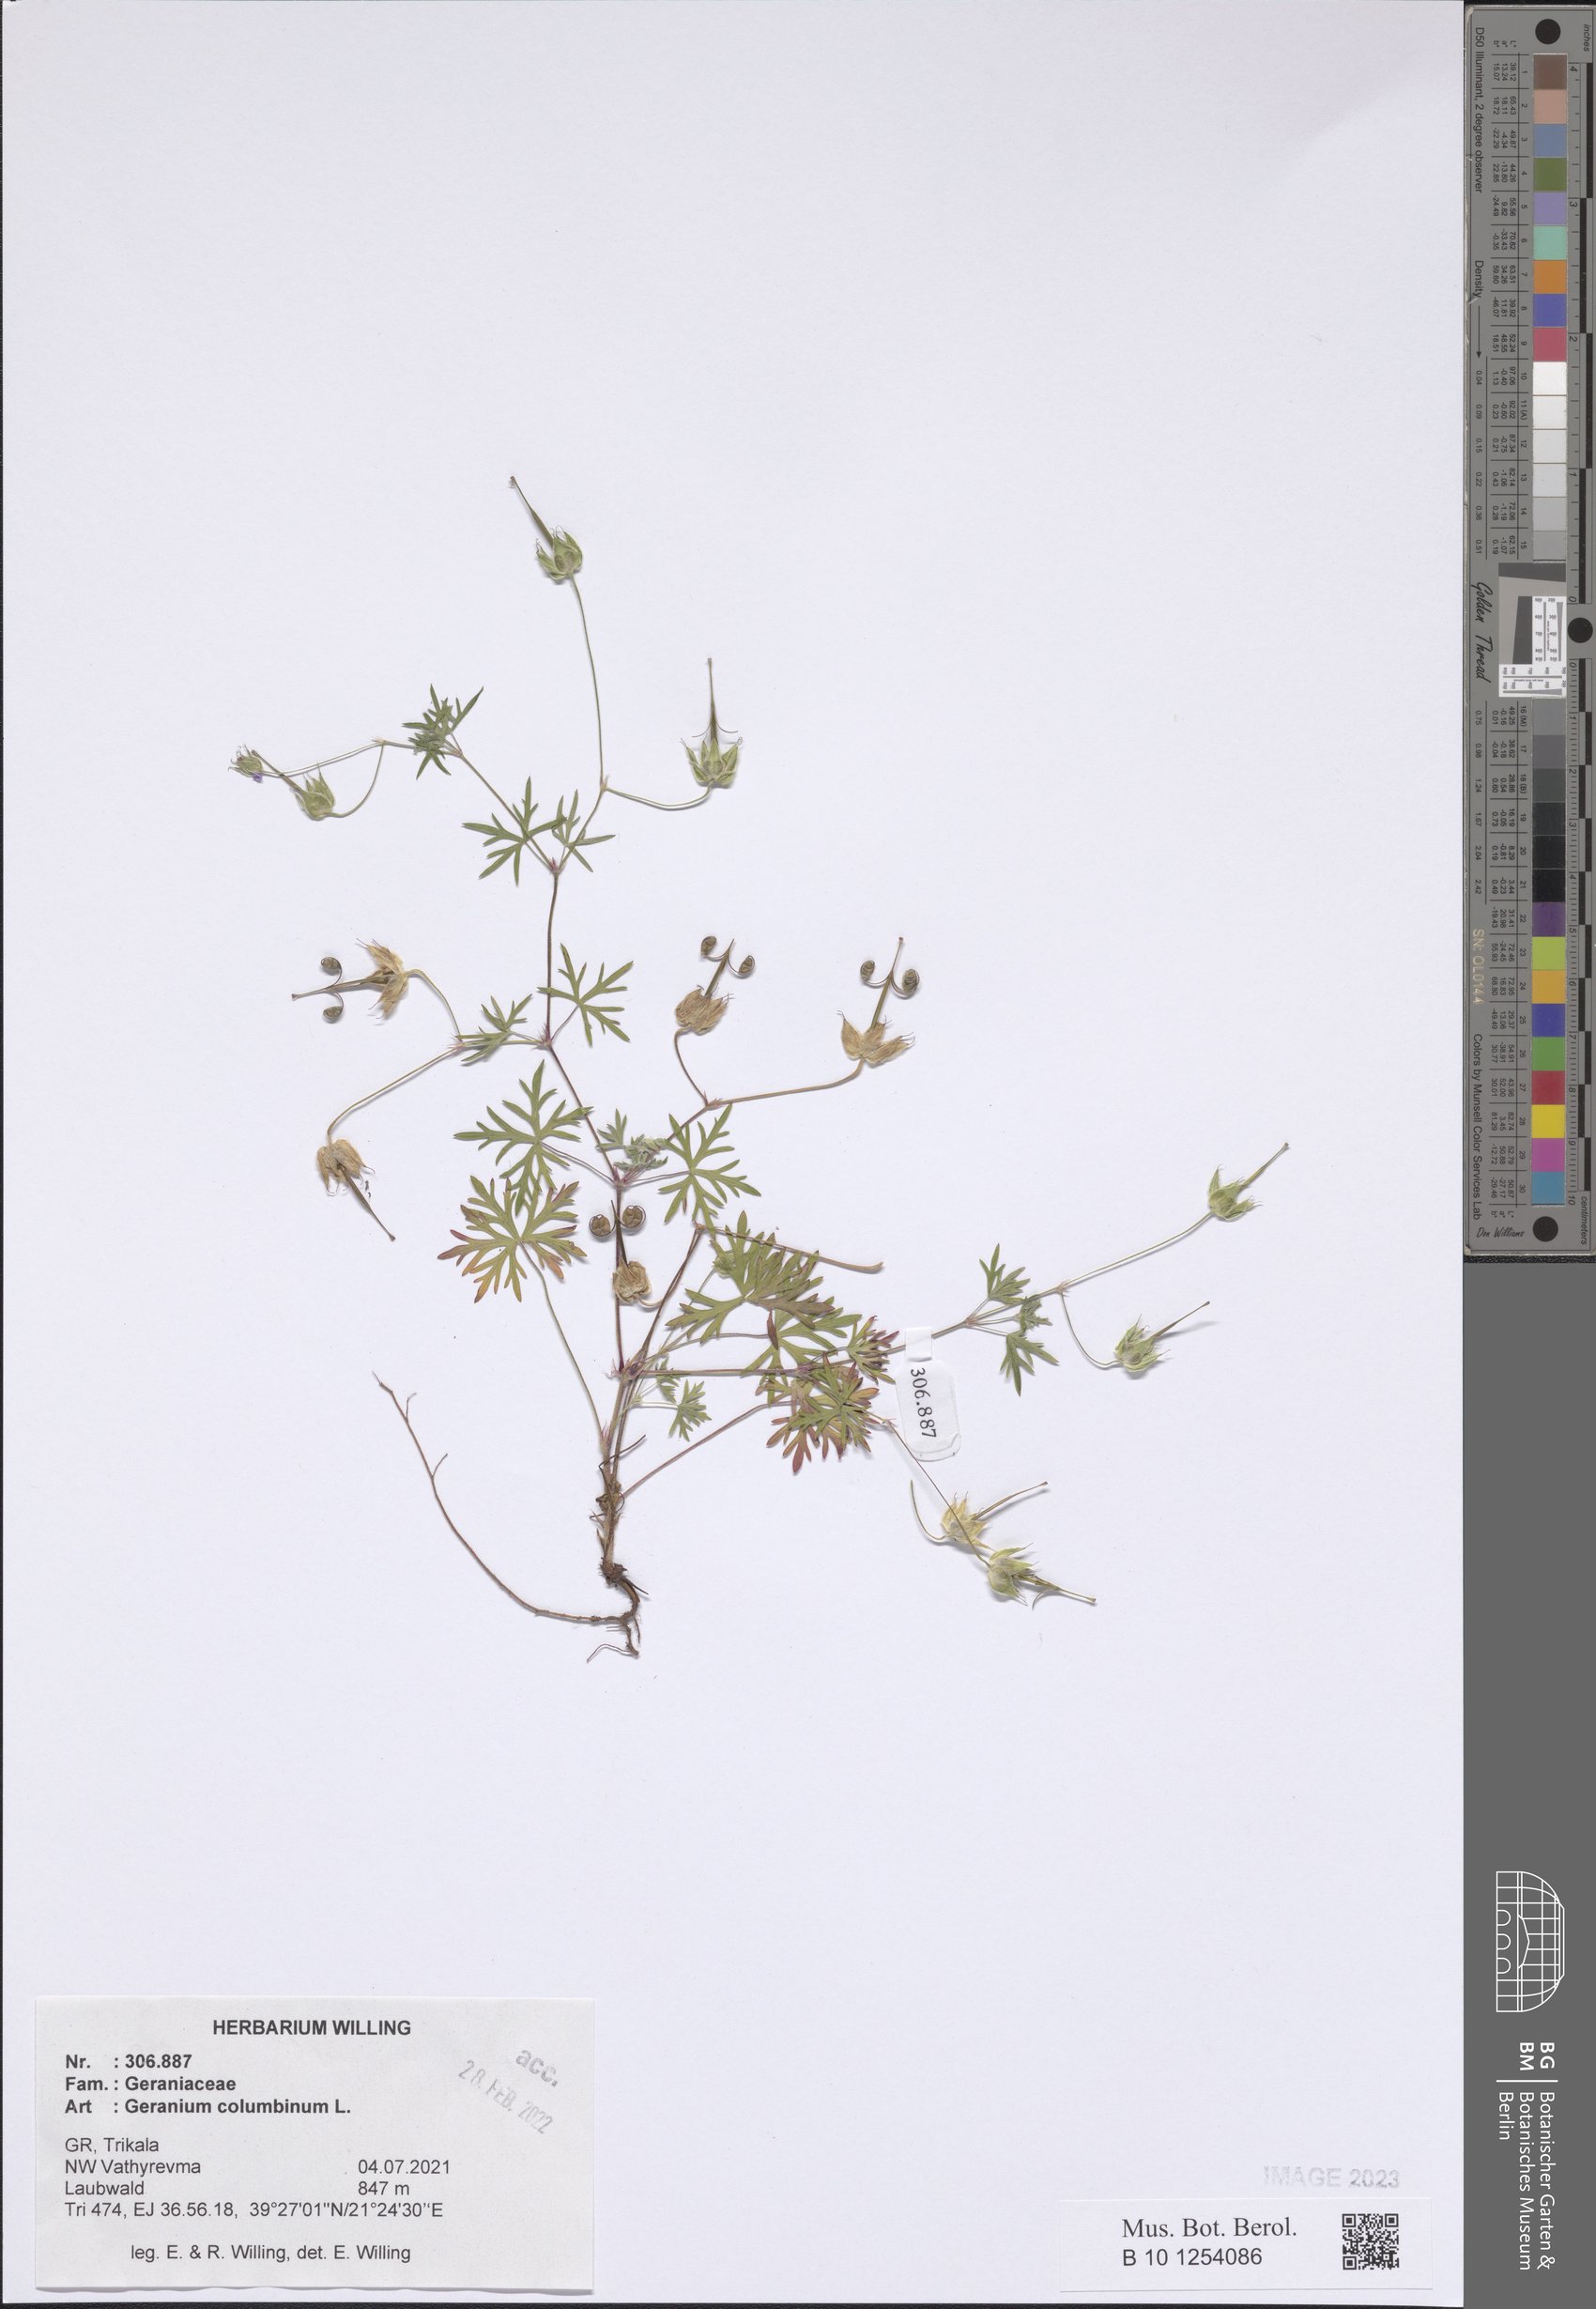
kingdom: Plantae
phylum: Tracheophyta
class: Magnoliopsida
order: Geraniales
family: Geraniaceae
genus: Geranium
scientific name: Geranium columbinum
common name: Long-stalked crane's-bill
